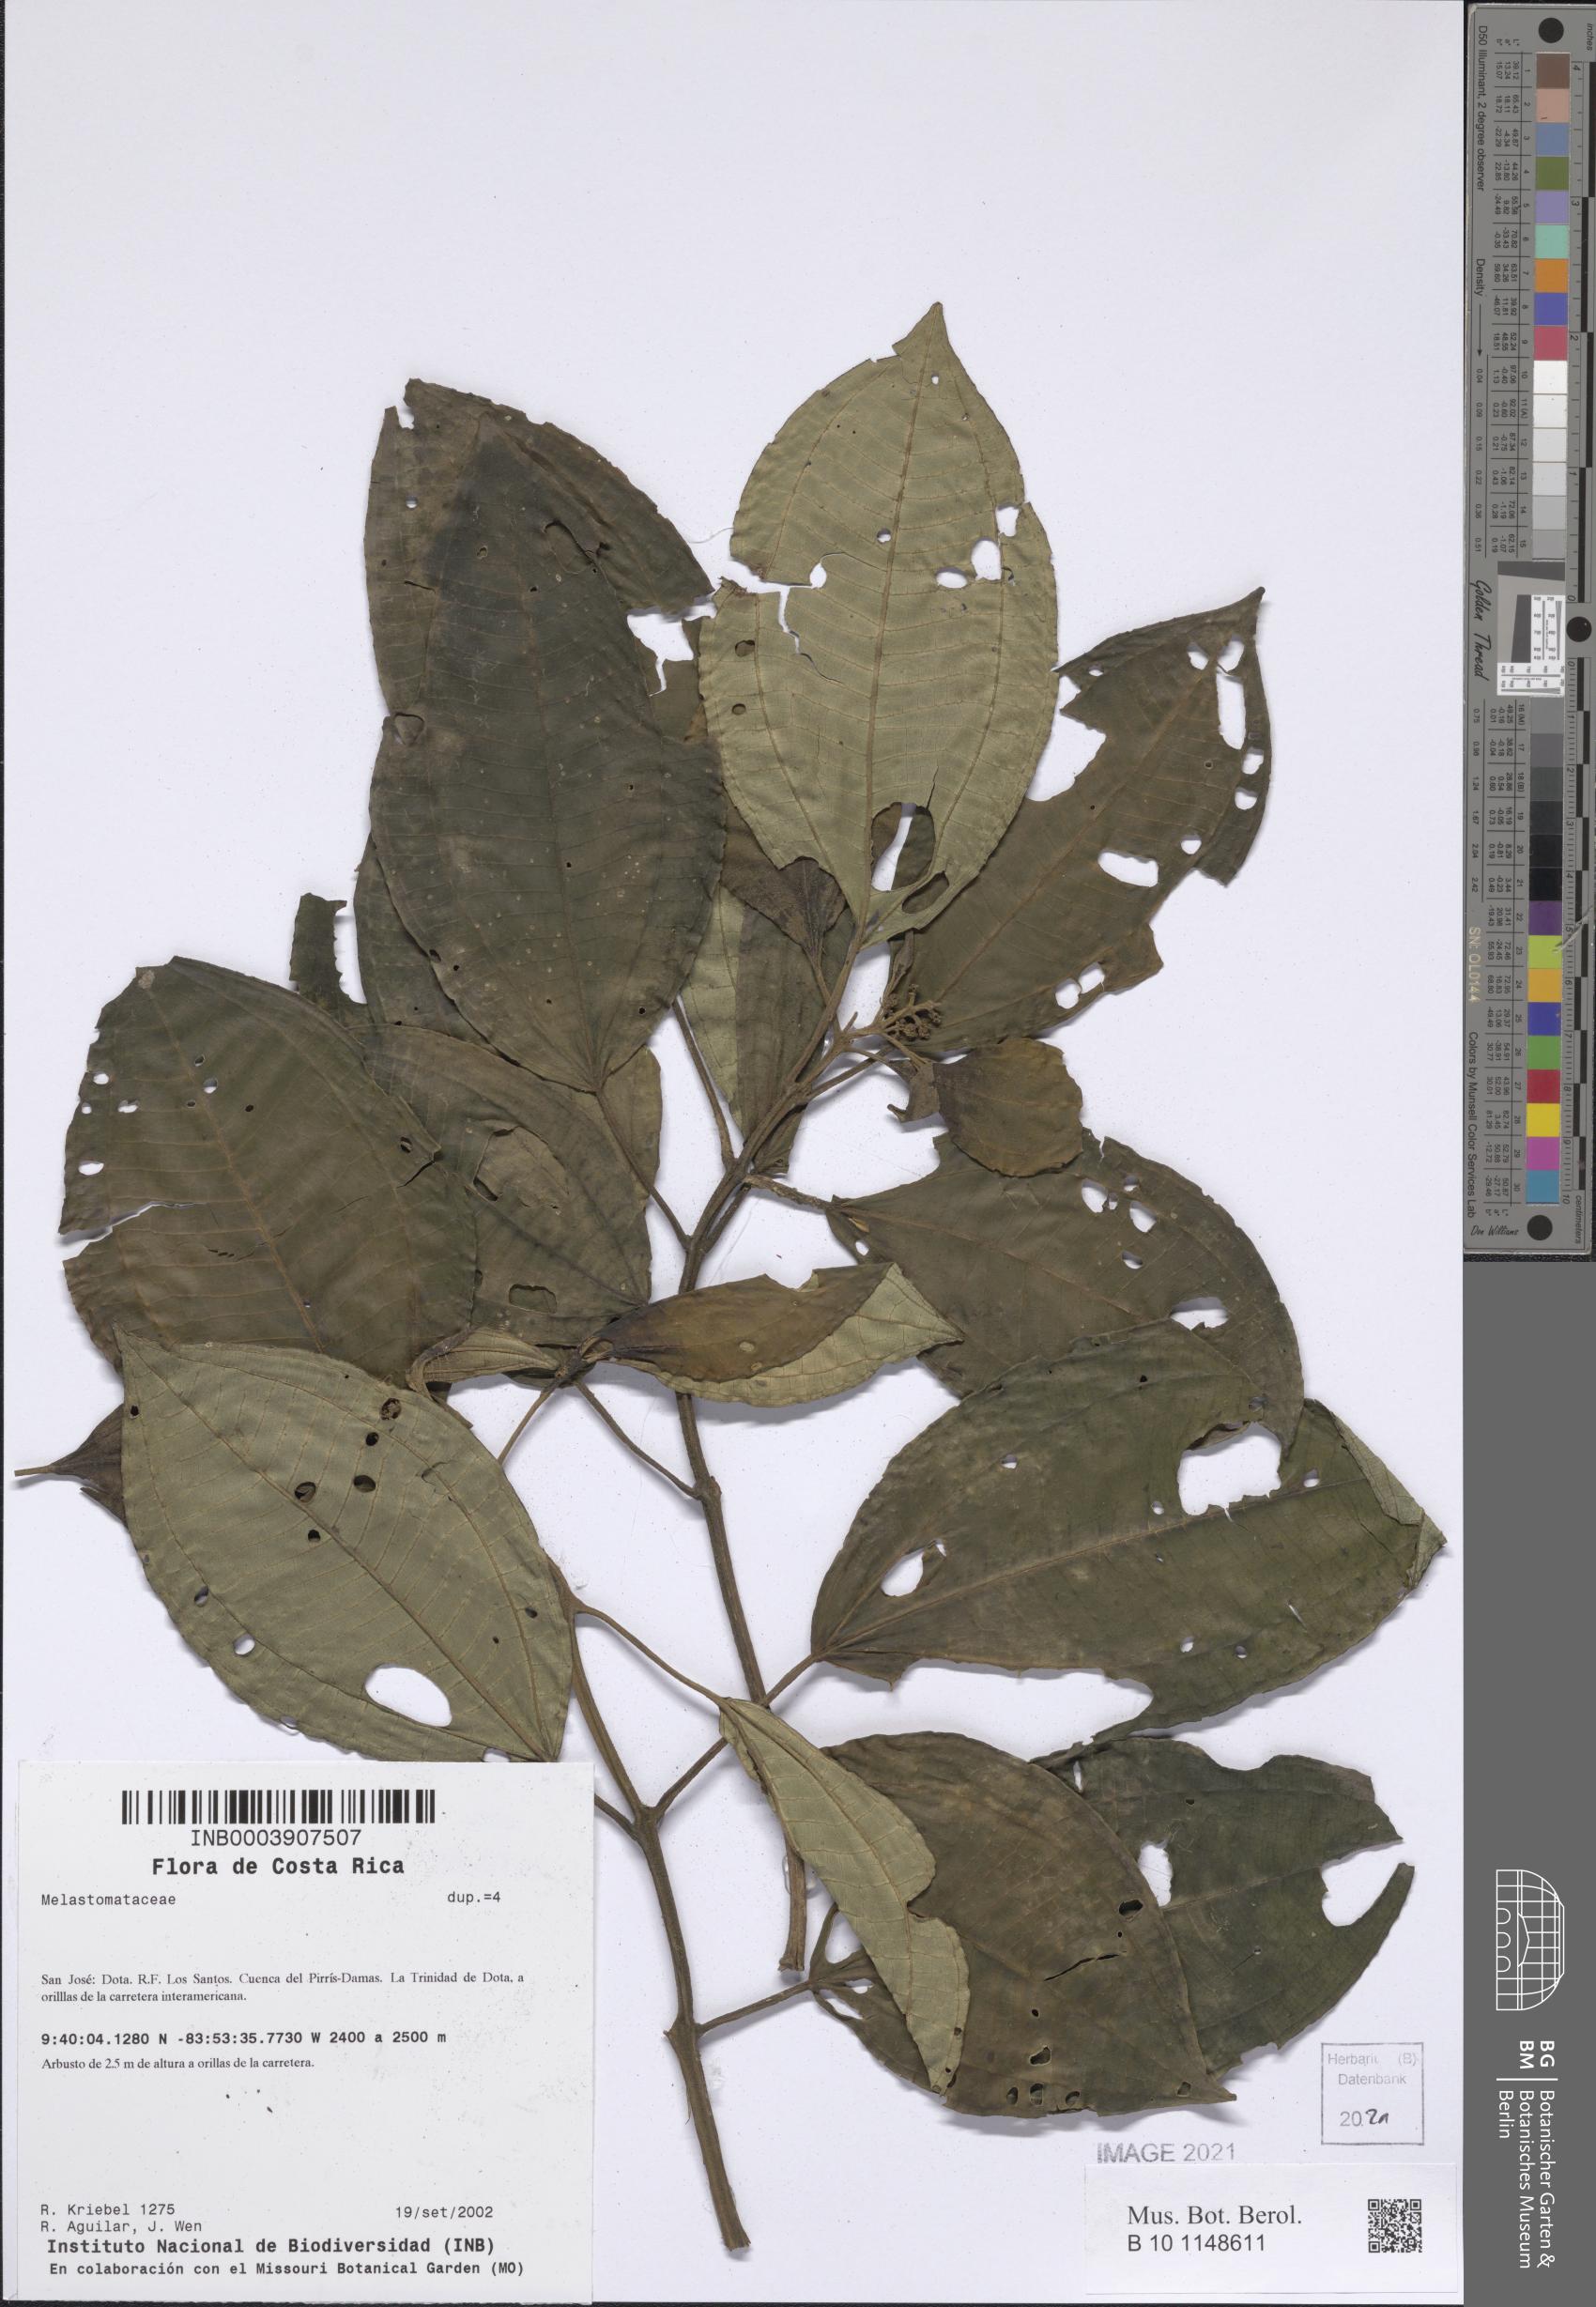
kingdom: Plantae
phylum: Tracheophyta
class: Magnoliopsida
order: Myrtales
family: Melastomataceae
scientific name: Melastomataceae
